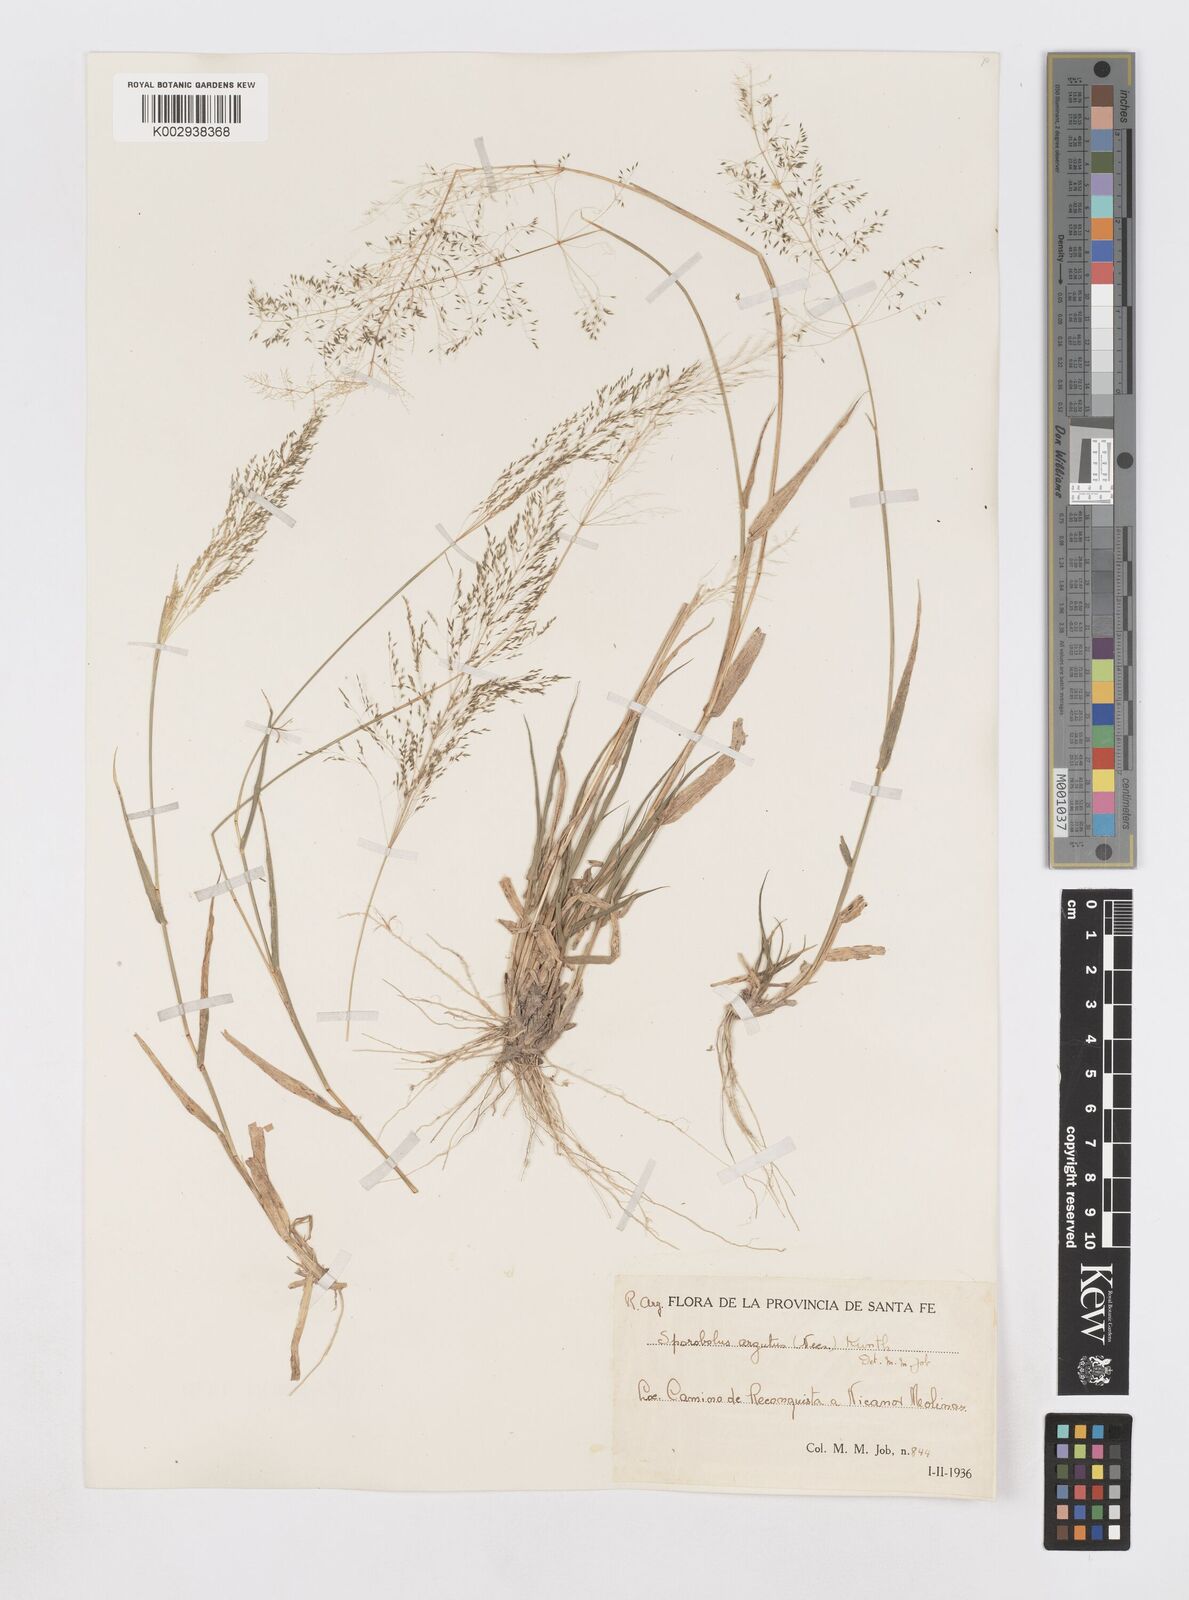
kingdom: Plantae
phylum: Tracheophyta
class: Liliopsida
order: Poales
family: Poaceae
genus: Sporobolus
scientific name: Sporobolus pyramidatus
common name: Whorled dropseed
